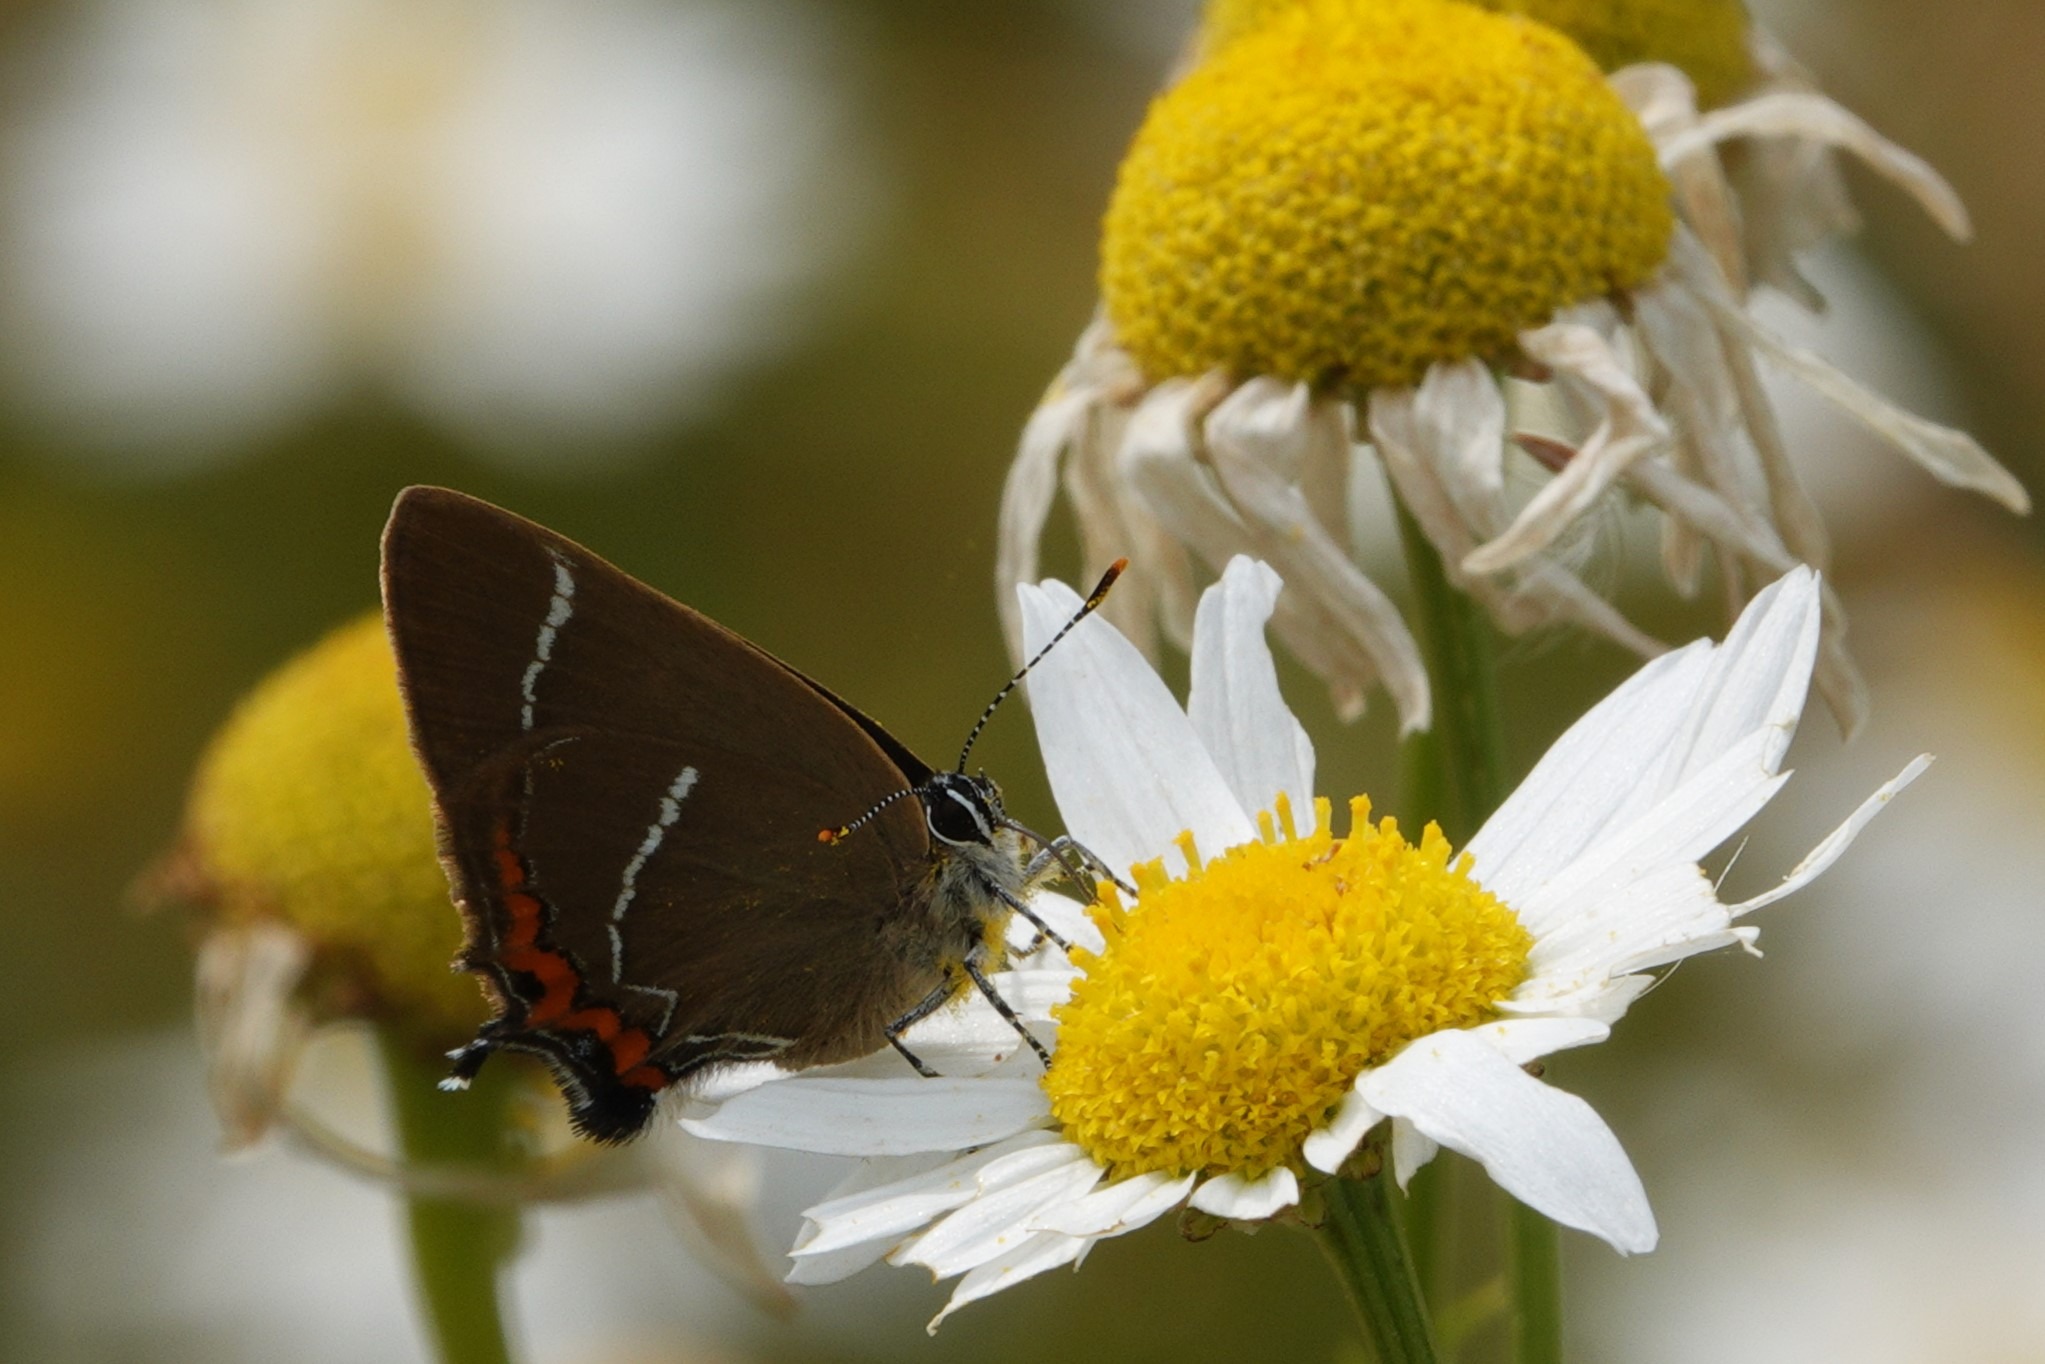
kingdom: Animalia
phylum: Arthropoda
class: Insecta
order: Lepidoptera
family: Lycaenidae
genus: Satyrium
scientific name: Satyrium w-album
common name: Det hvide W
